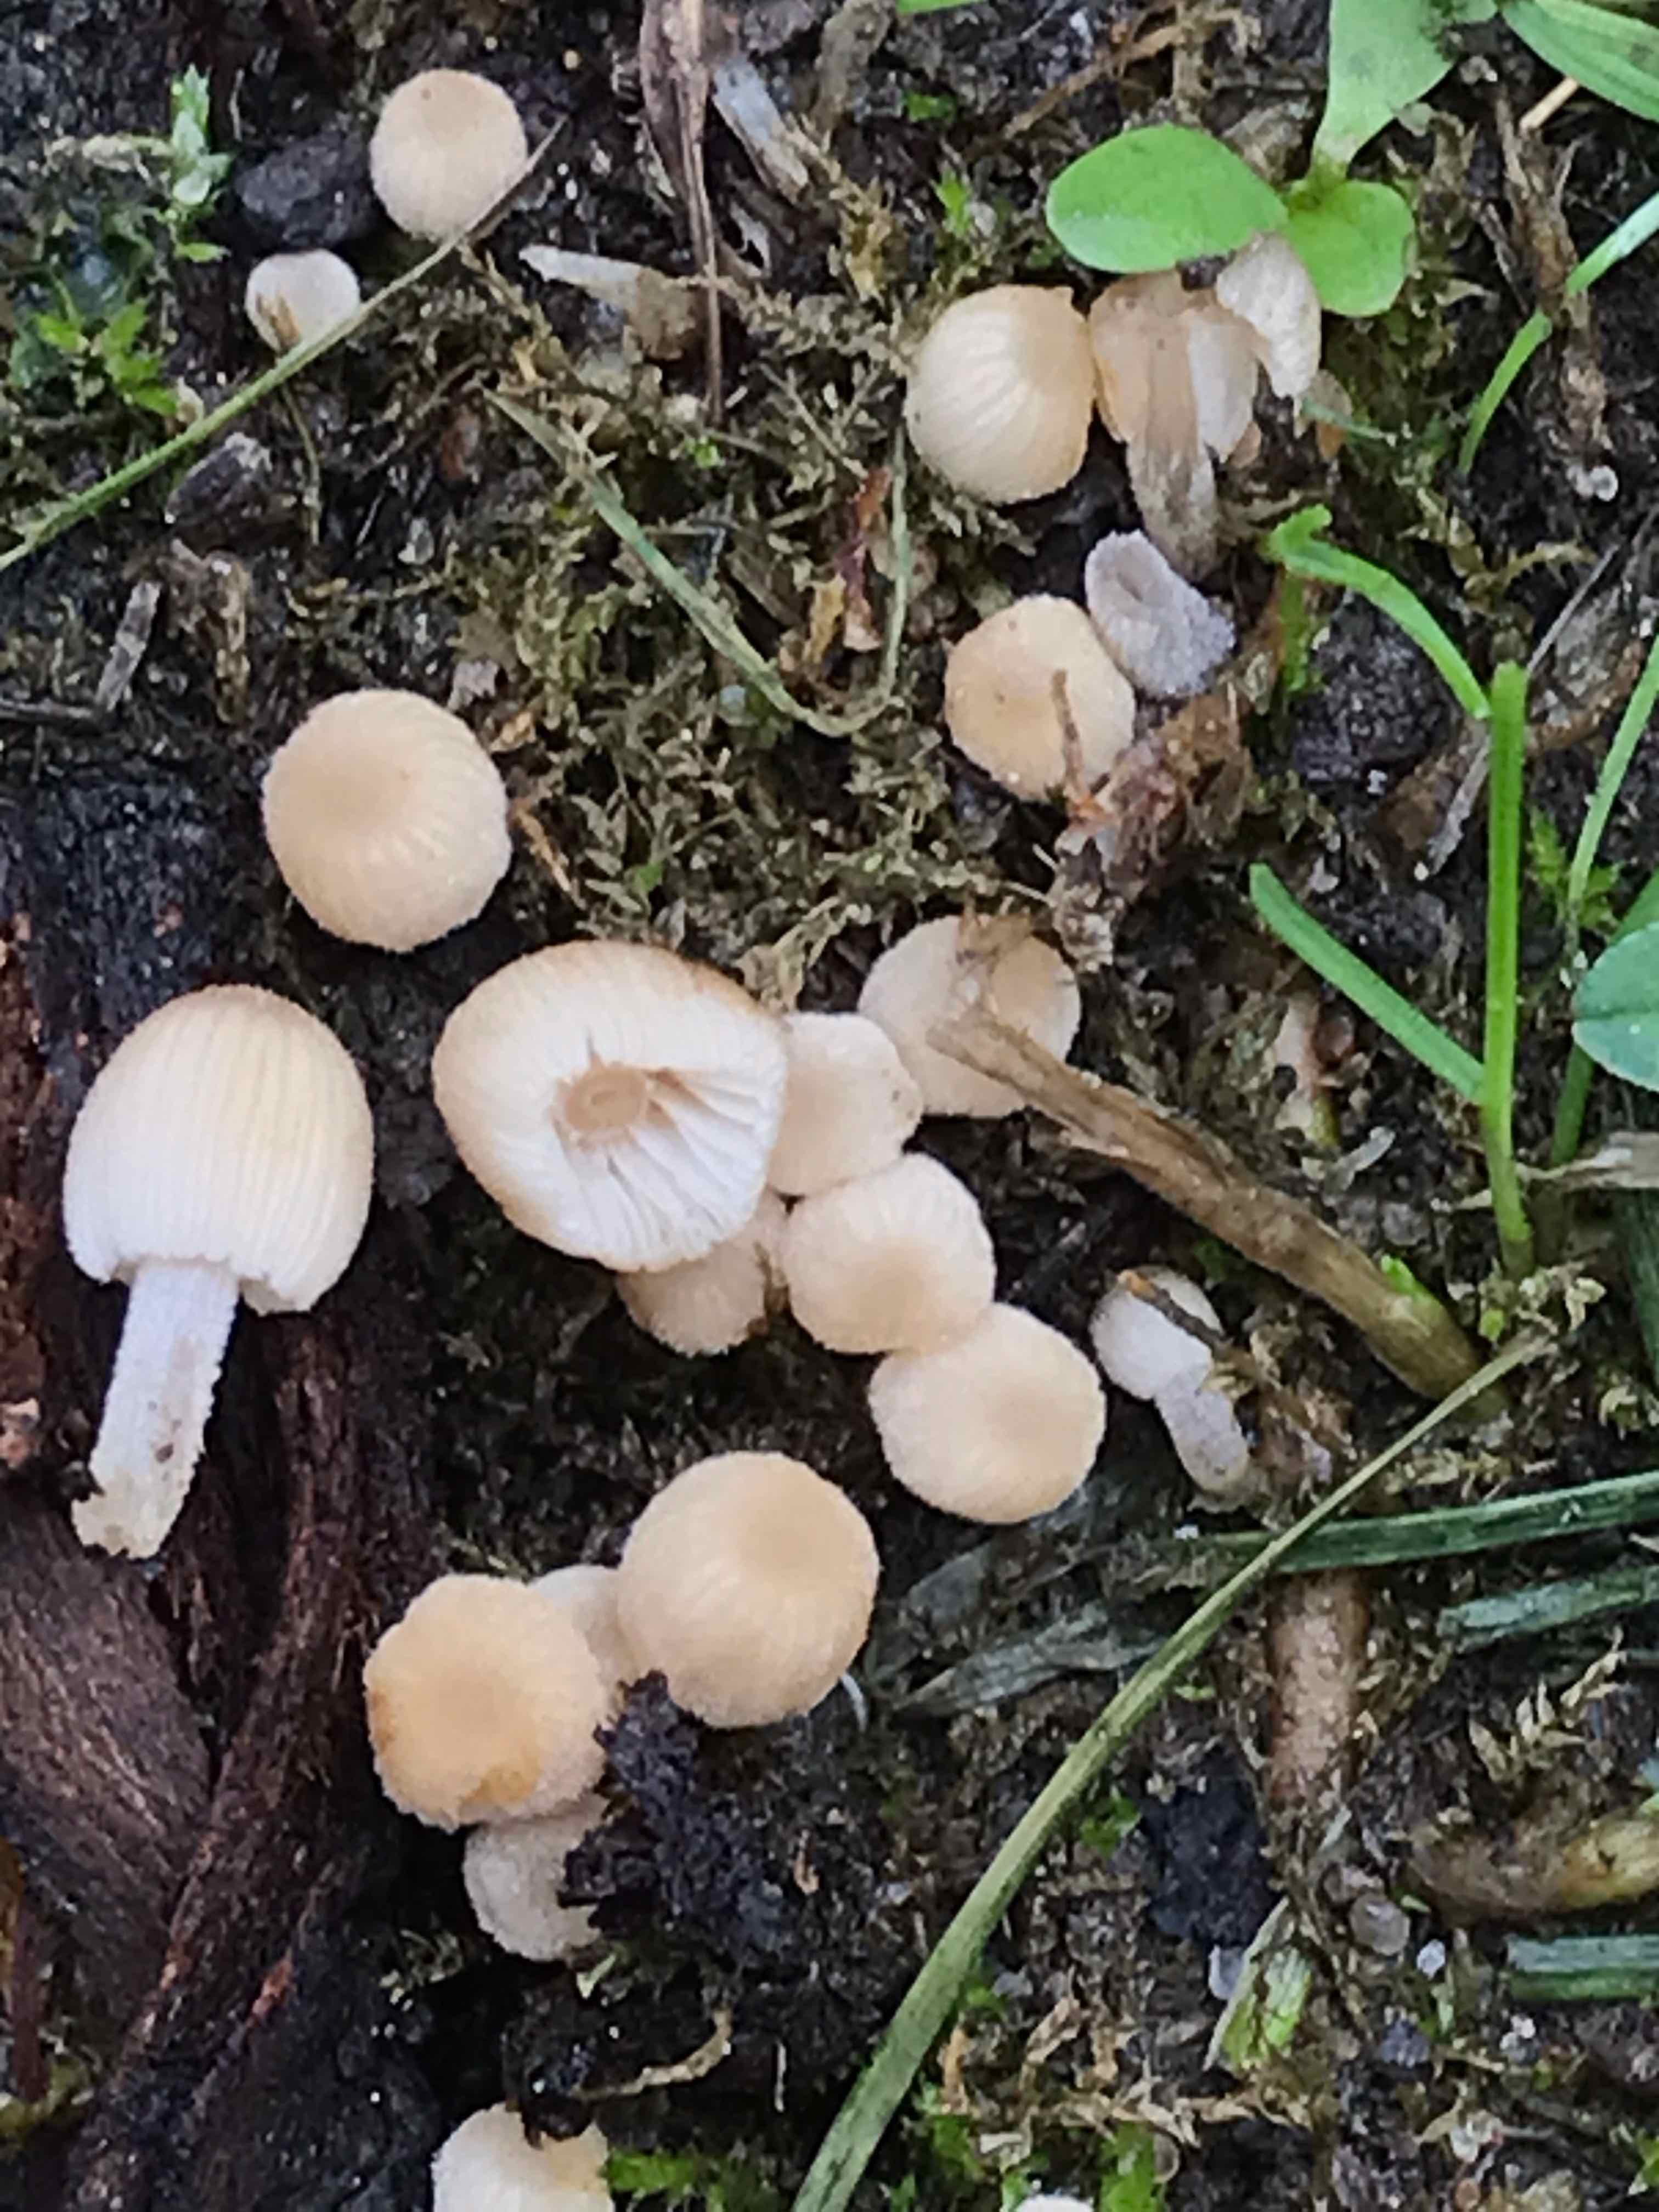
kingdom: Fungi
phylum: Basidiomycota
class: Agaricomycetes
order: Agaricales
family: Psathyrellaceae
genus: Coprinellus
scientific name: Coprinellus disseminatus
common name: bredsået blækhat
